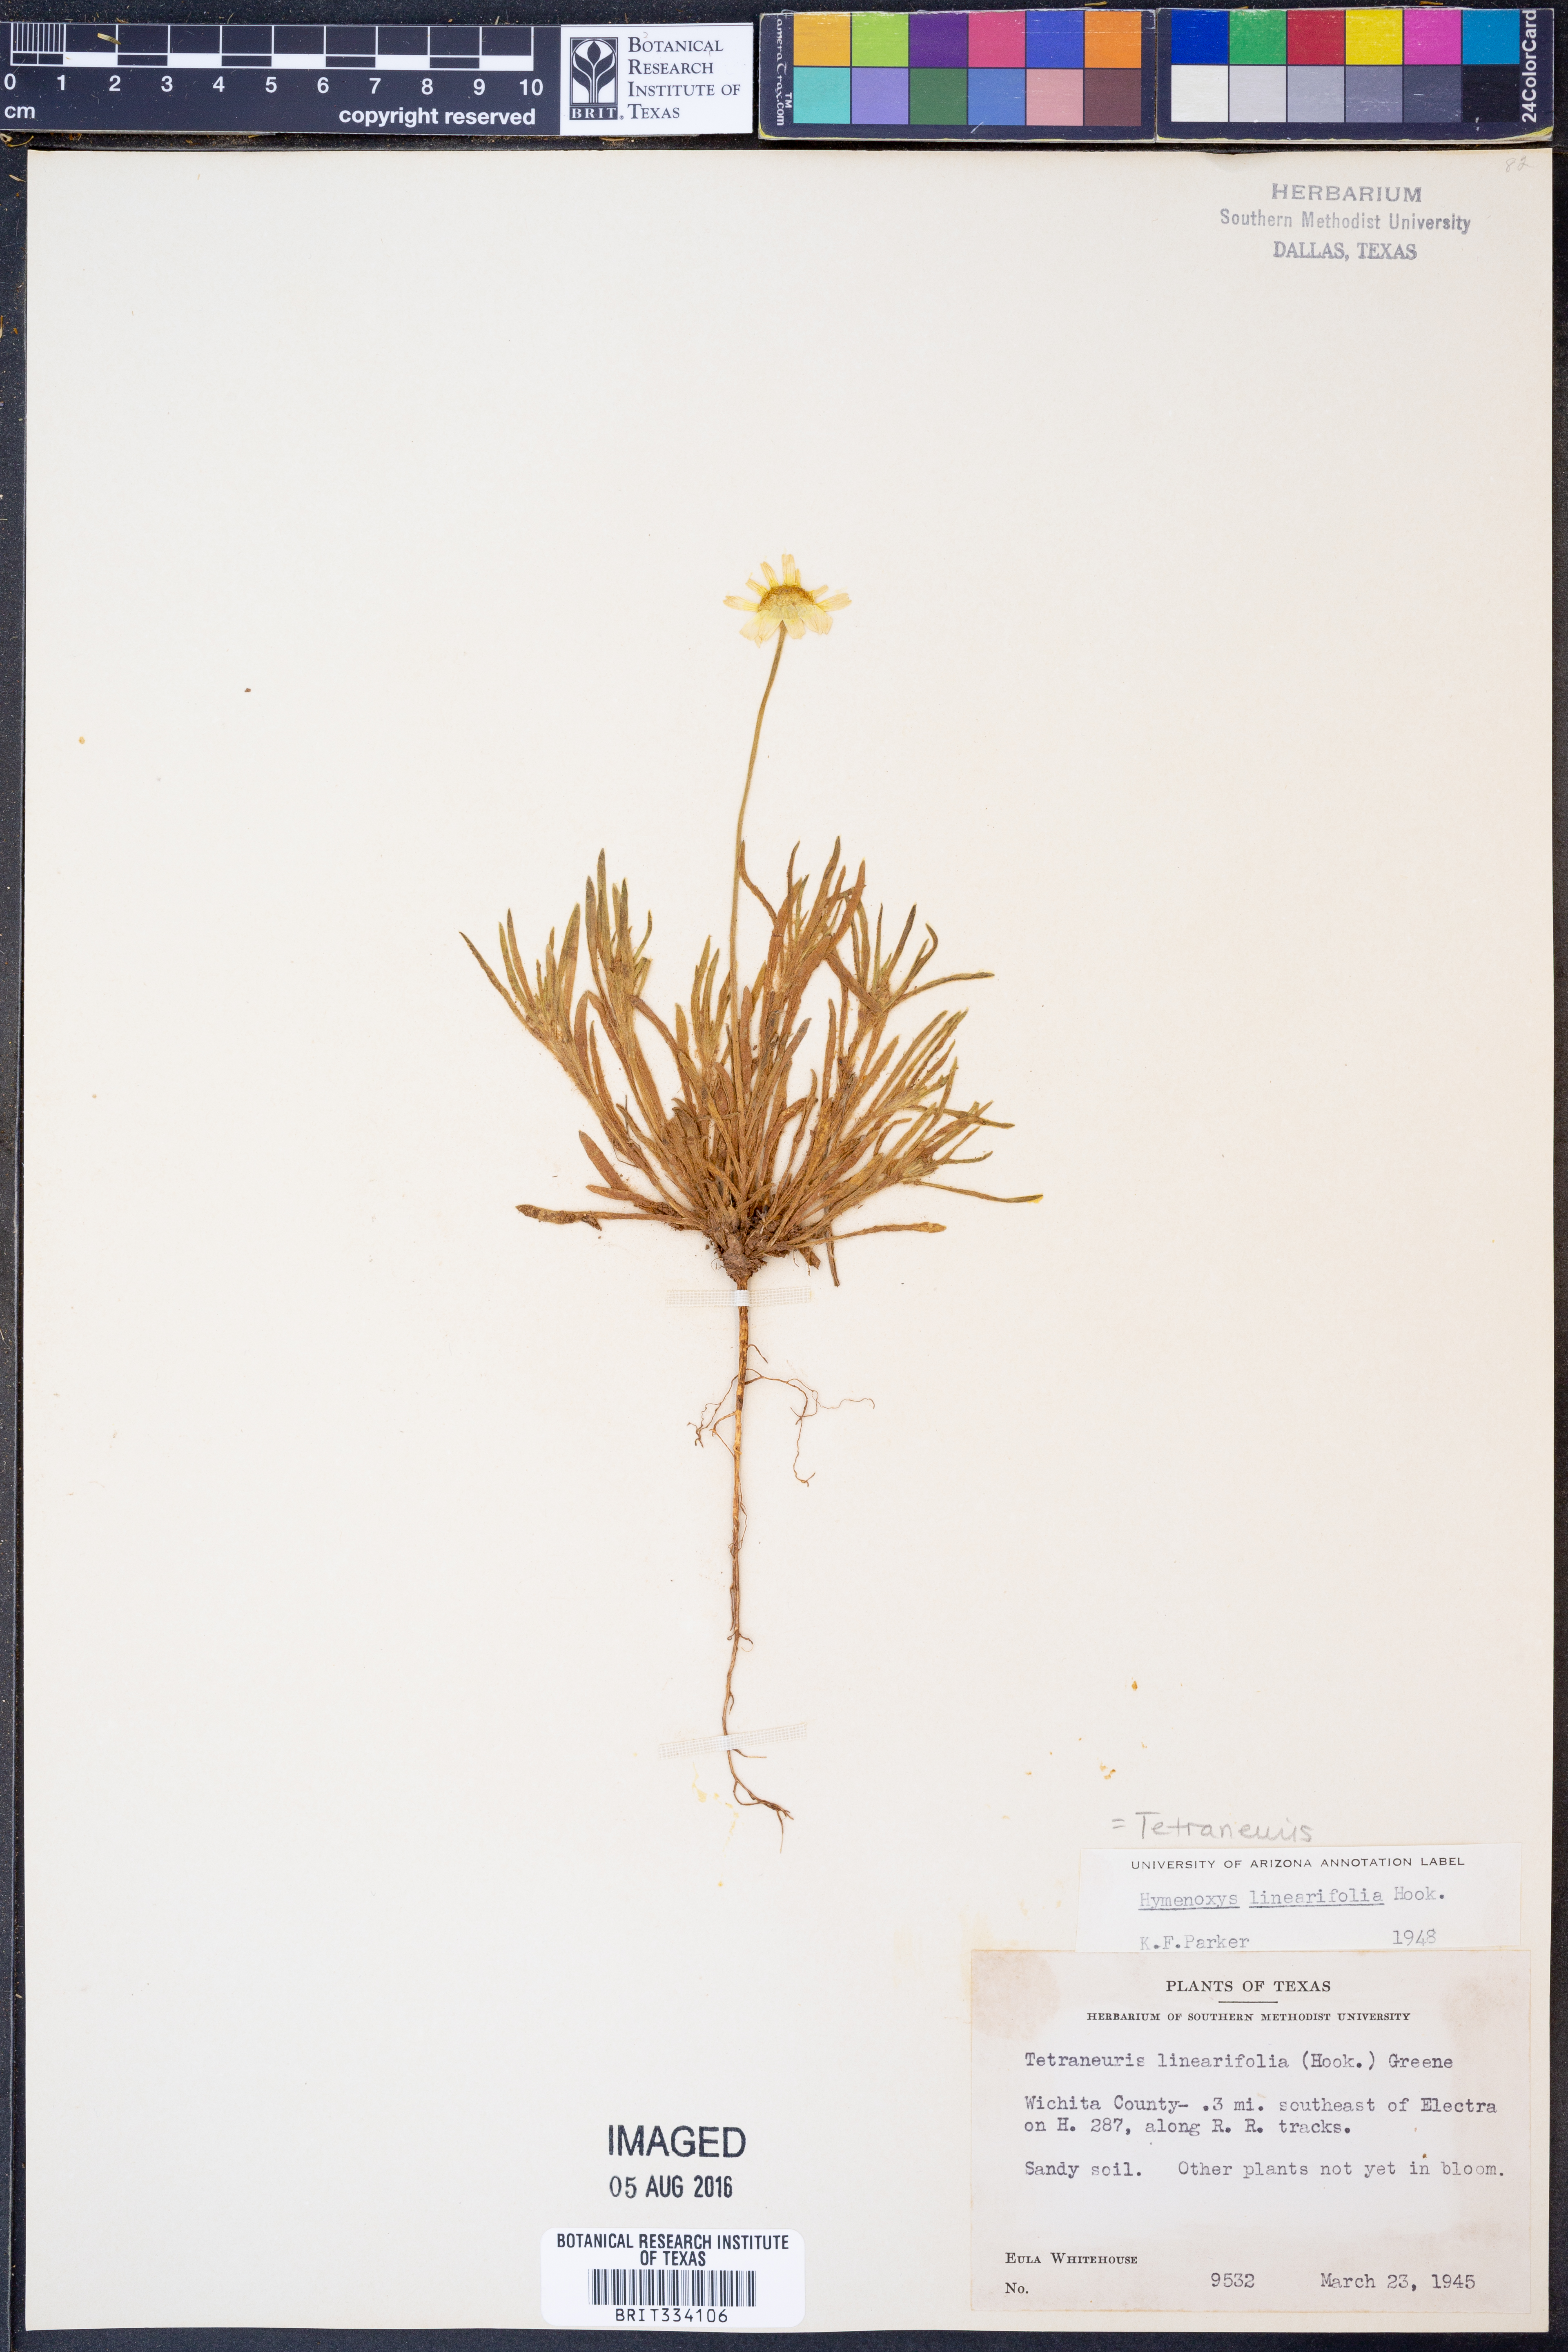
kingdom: Plantae
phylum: Tracheophyta
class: Magnoliopsida
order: Asterales
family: Asteraceae
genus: Tetraneuris
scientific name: Tetraneuris linearifolia
